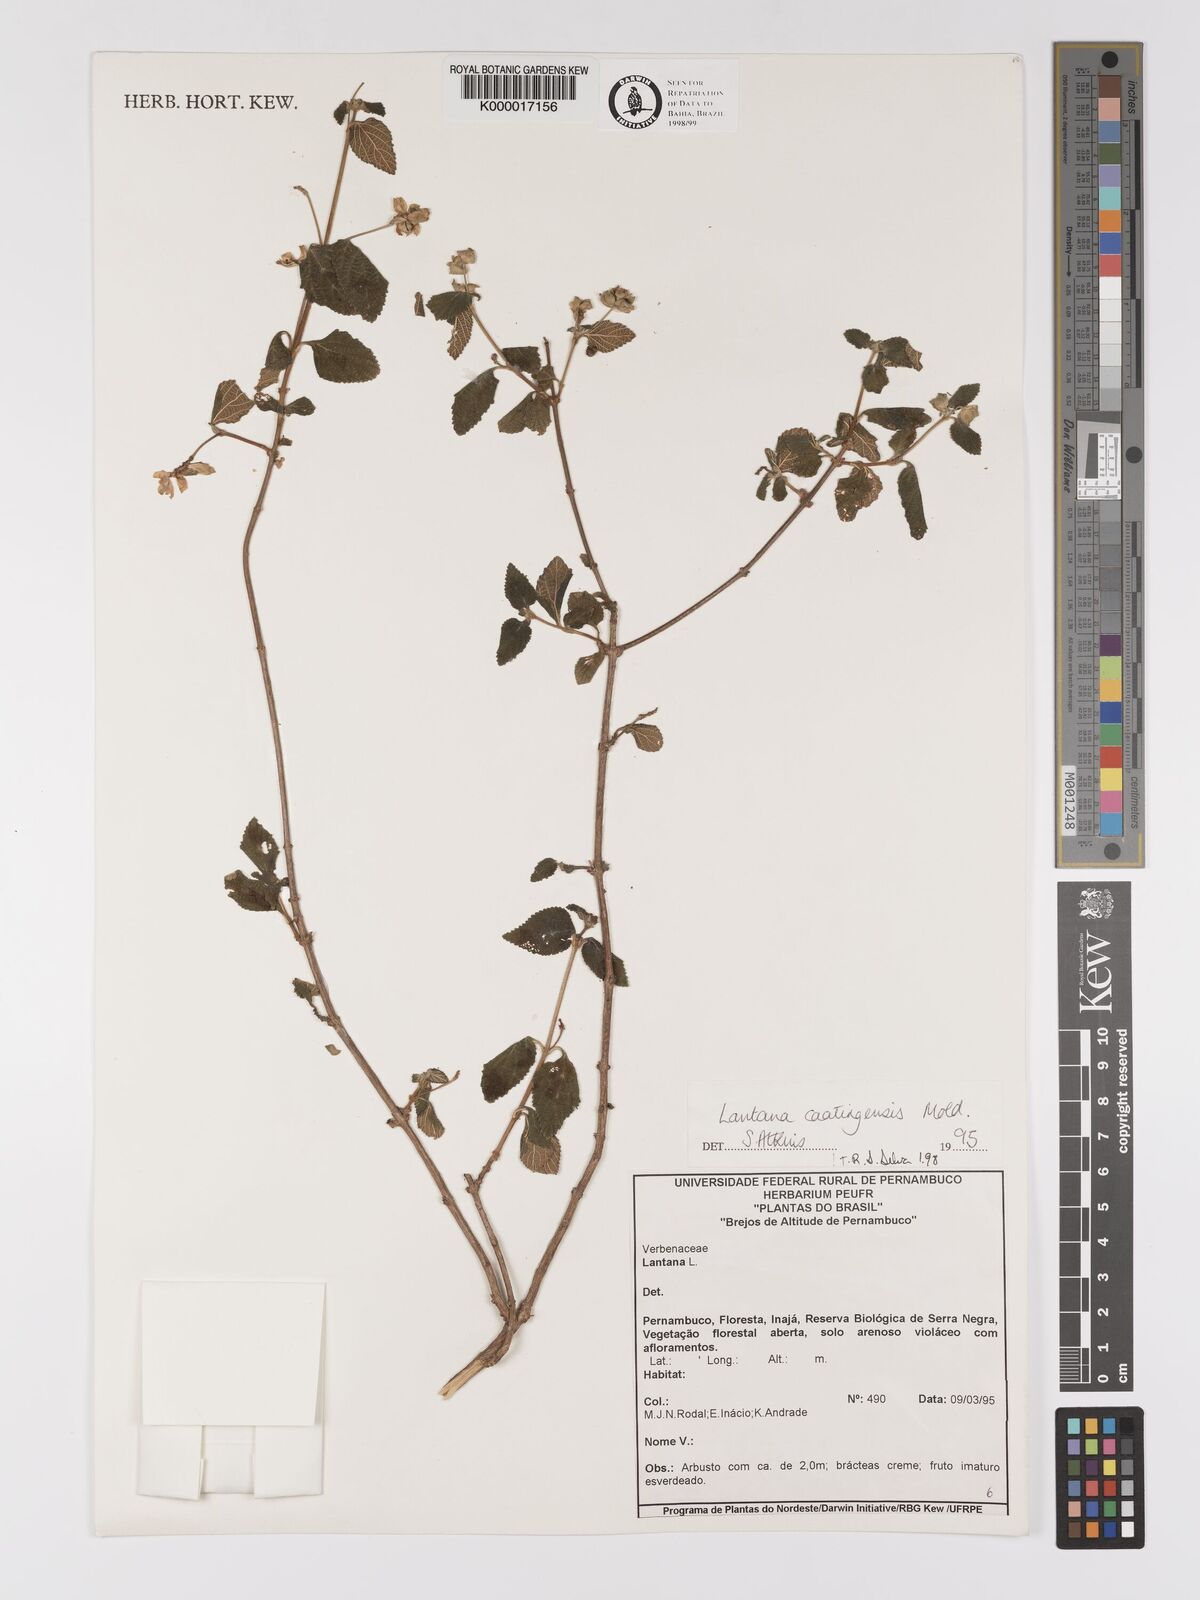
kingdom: Plantae
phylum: Tracheophyta
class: Magnoliopsida
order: Lamiales
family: Verbenaceae
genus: Lantana
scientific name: Lantana caatingensis
